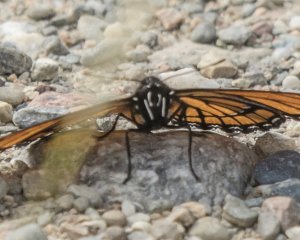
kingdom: Animalia
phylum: Arthropoda
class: Insecta
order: Lepidoptera
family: Nymphalidae
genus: Limenitis
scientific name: Limenitis archippus
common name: Viceroy
